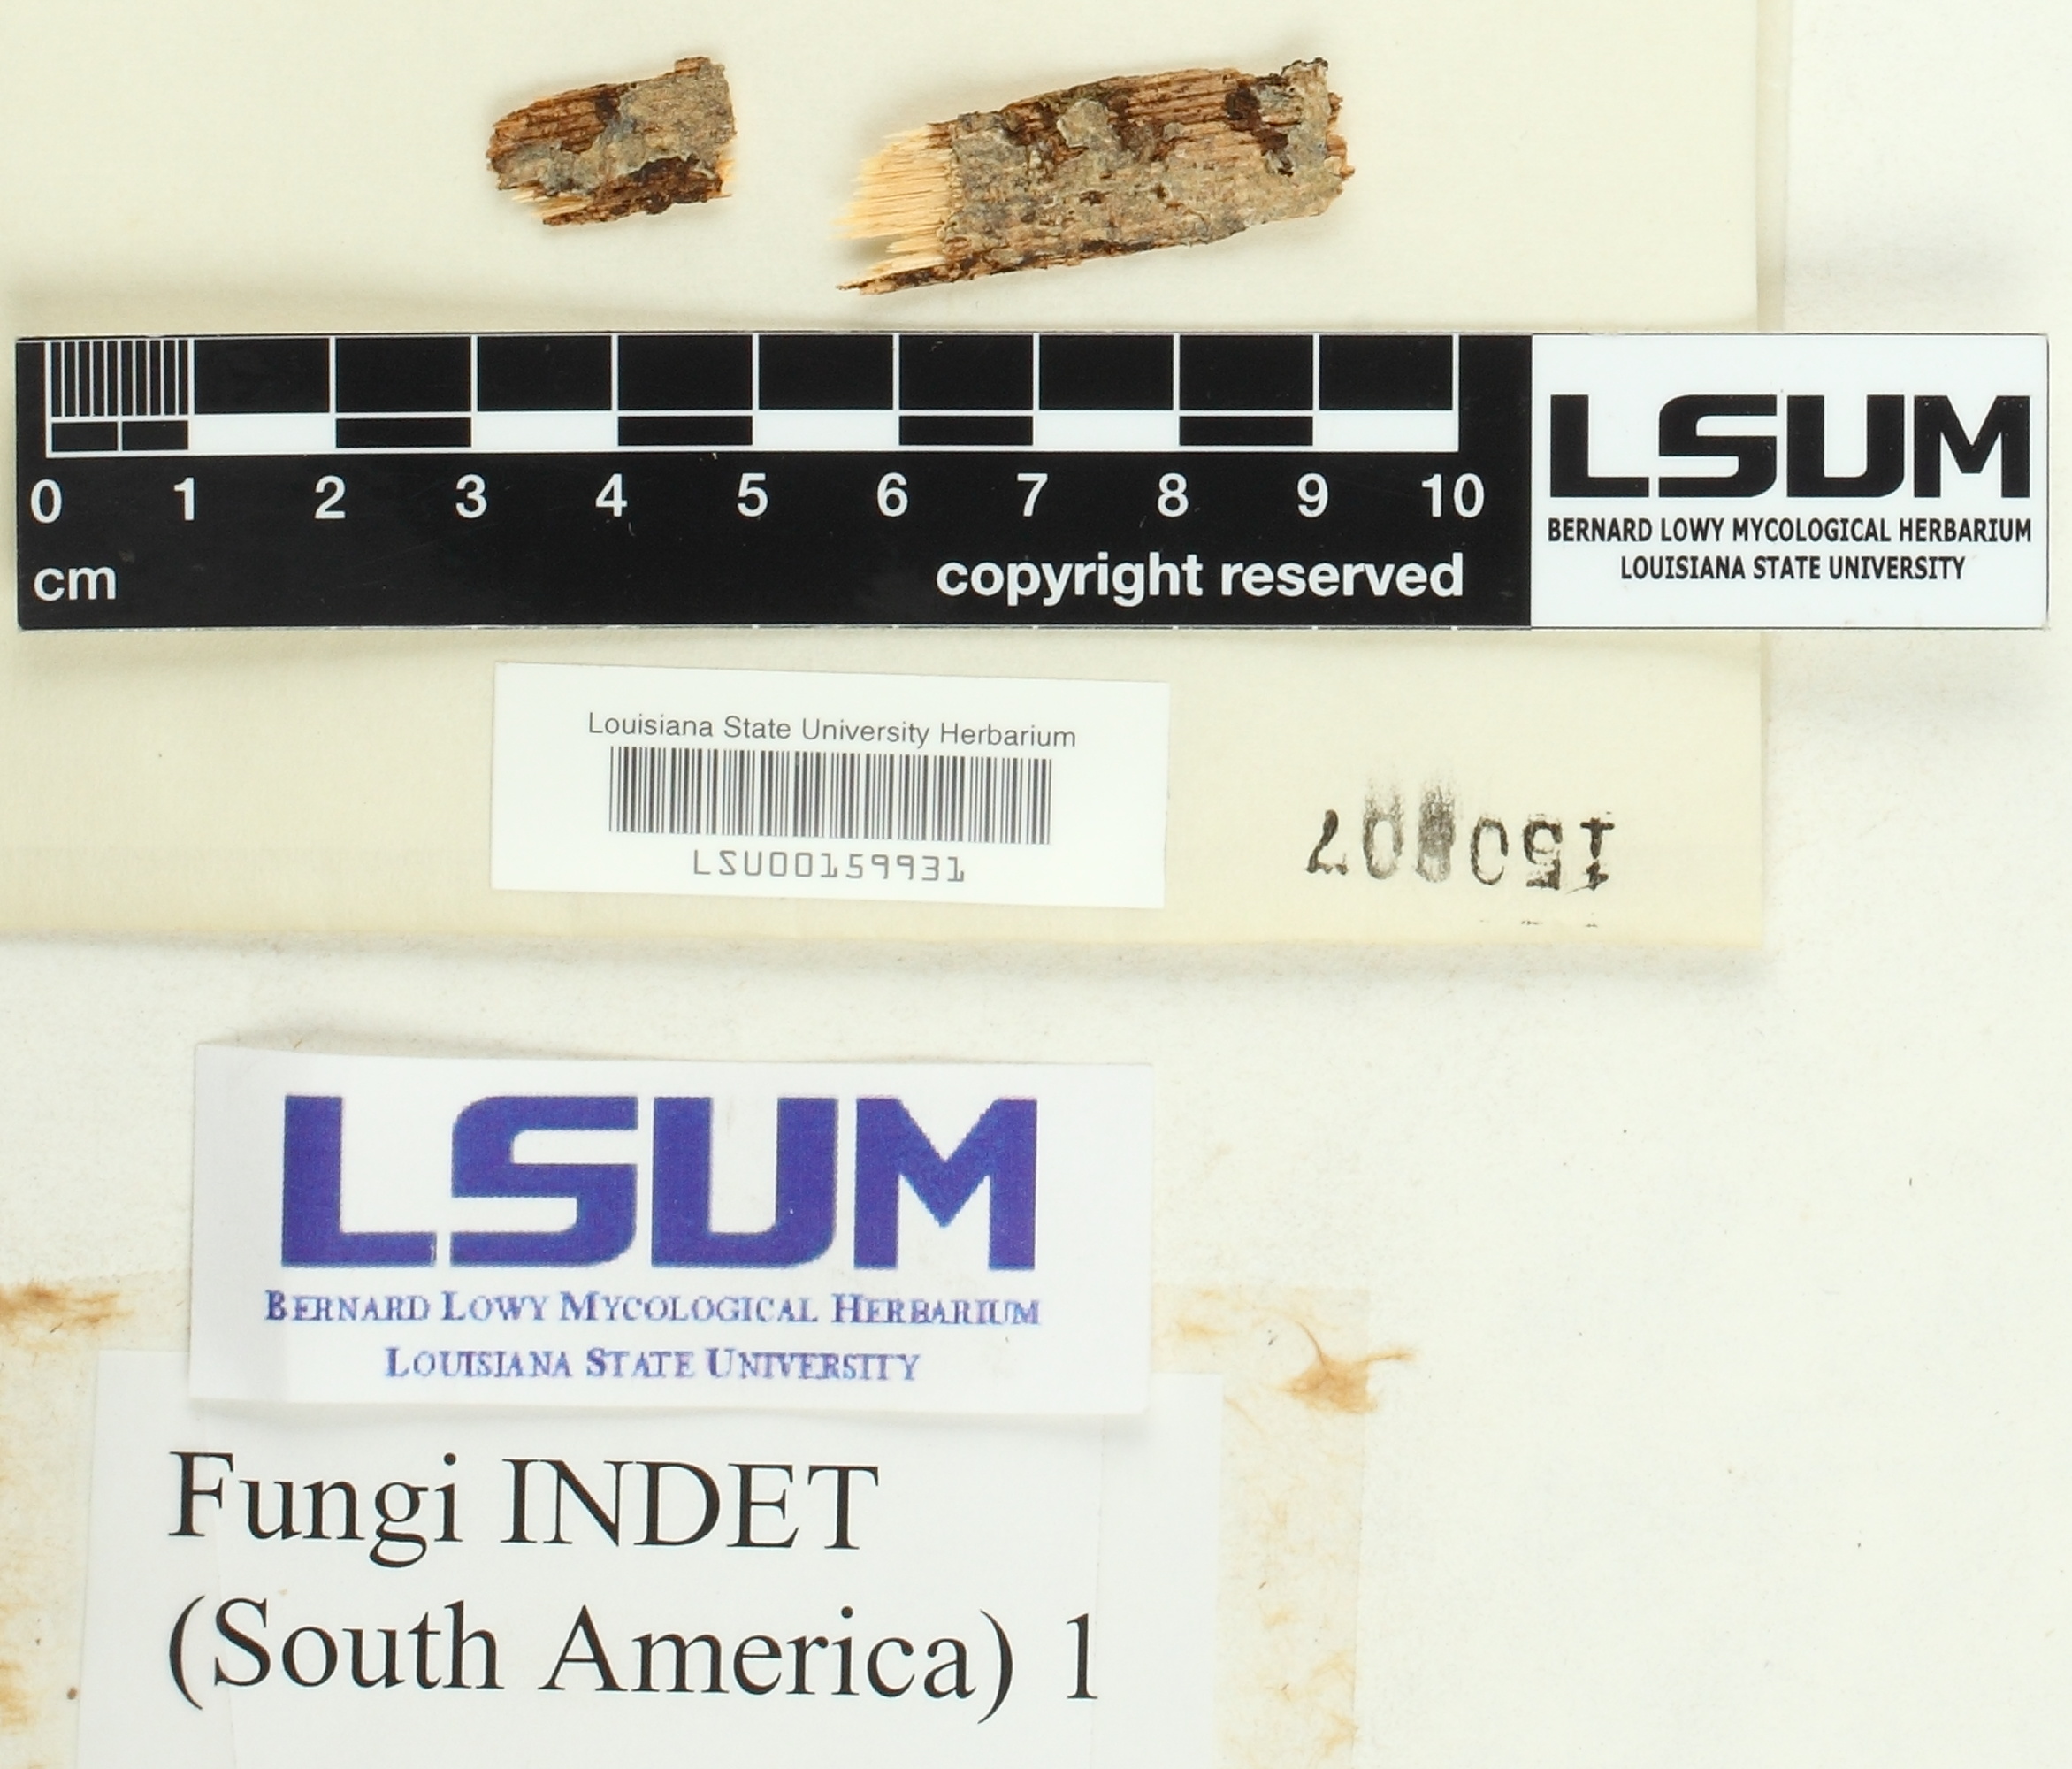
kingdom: Fungi
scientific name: Fungi
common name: Fungi
